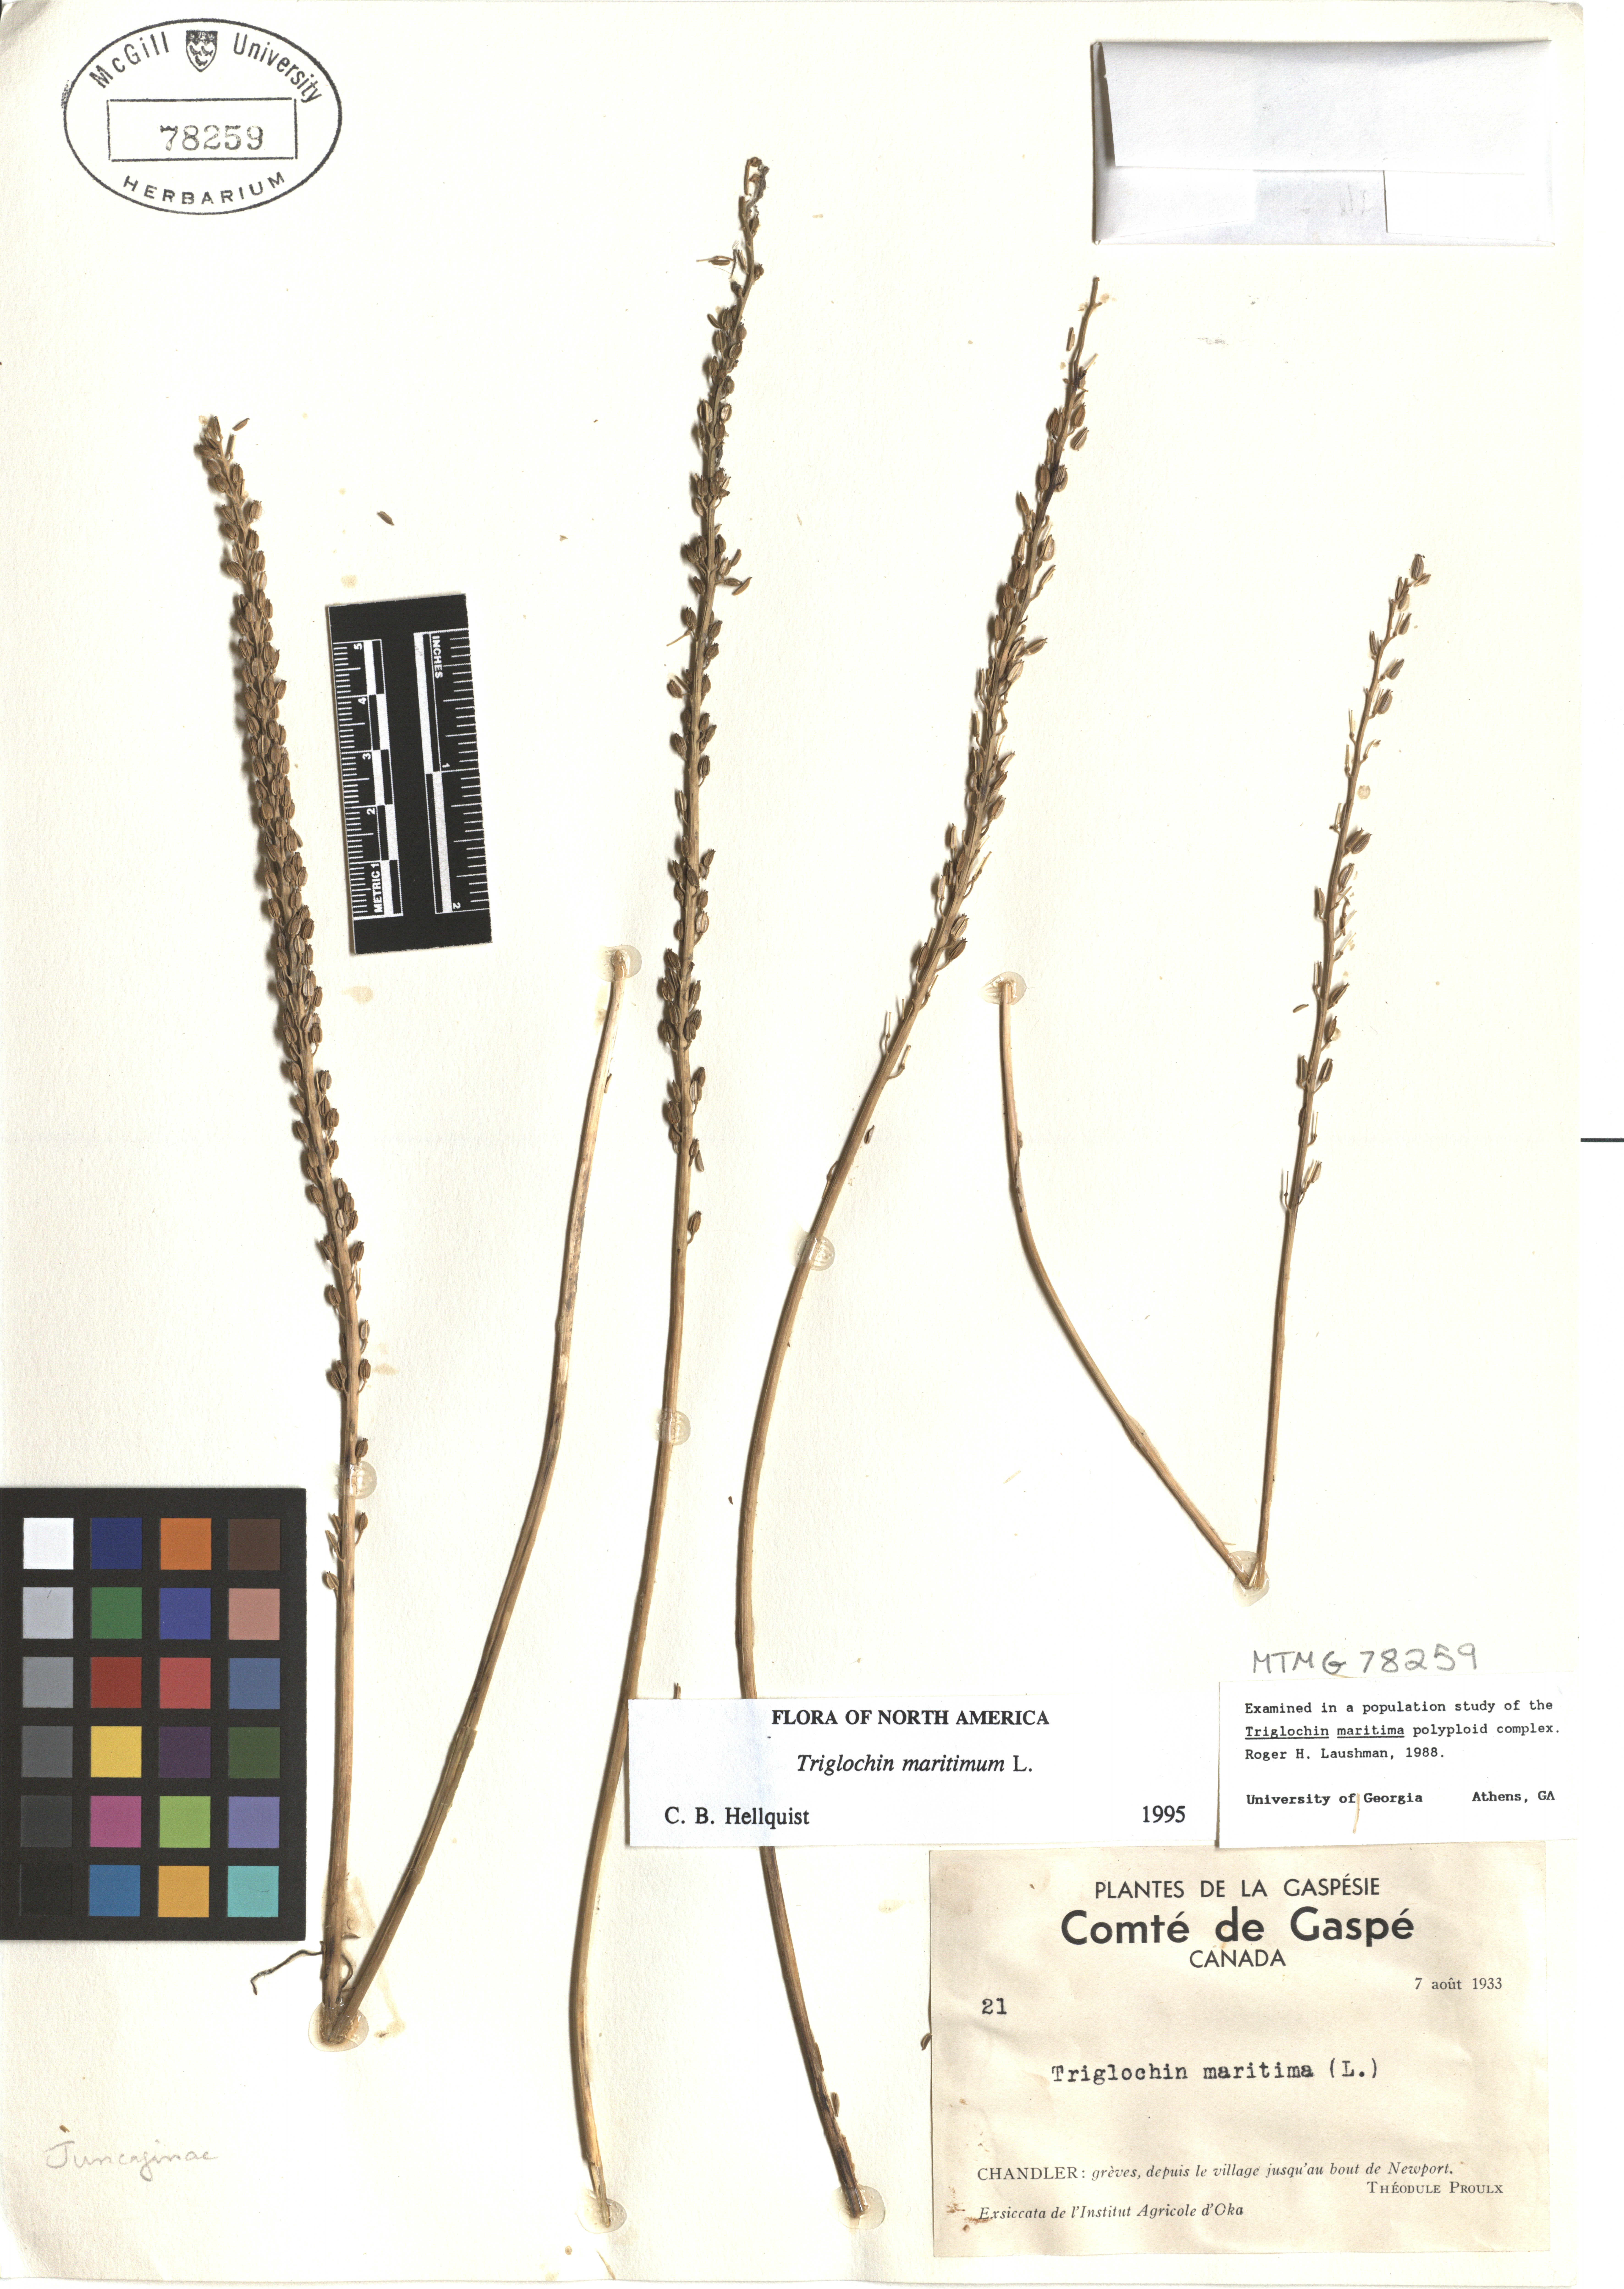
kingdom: Plantae
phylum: Tracheophyta
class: Liliopsida
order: Alismatales
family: Juncaginaceae
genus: Triglochin
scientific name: Triglochin maritima
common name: Sea arrowgrass
